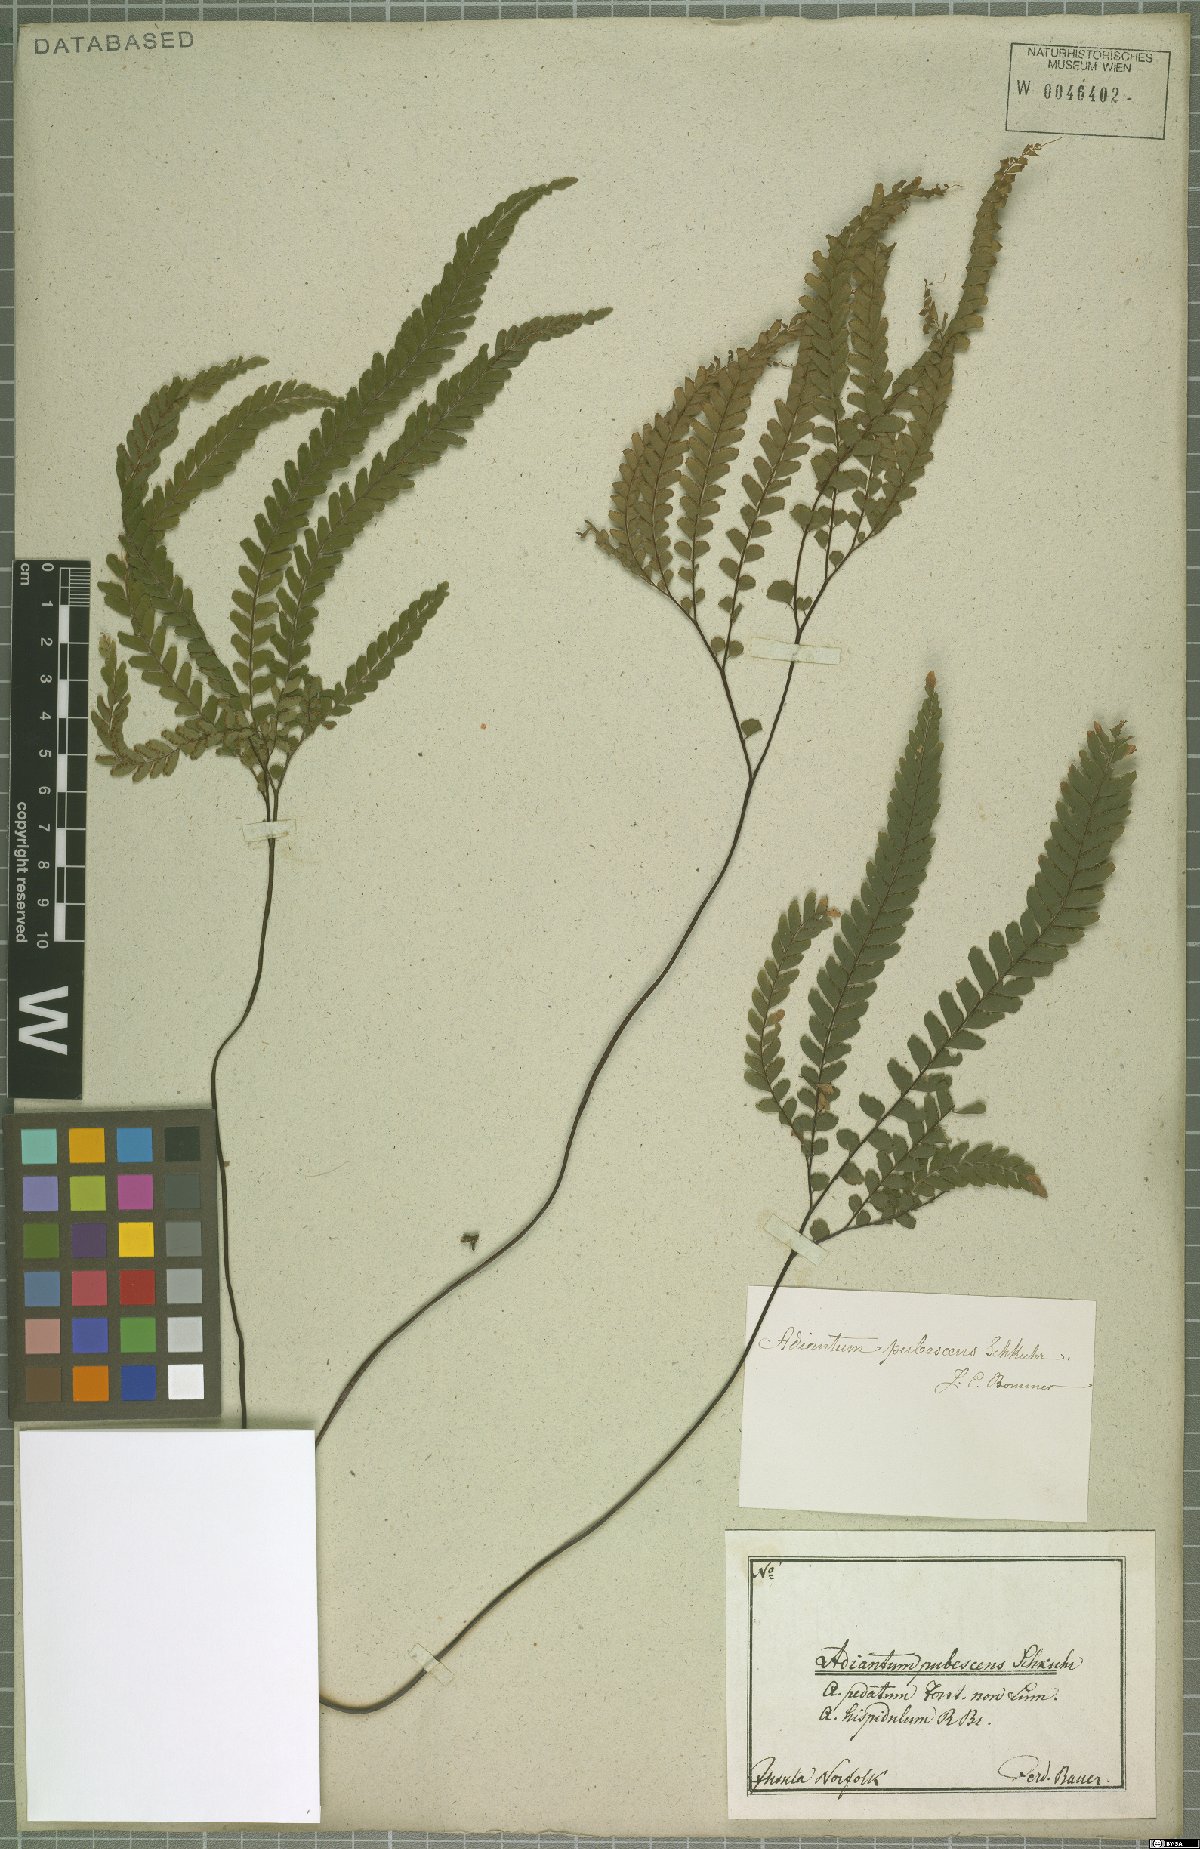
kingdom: Plantae
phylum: Tracheophyta
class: Polypodiopsida
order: Polypodiales
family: Pteridaceae
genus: Adiantum
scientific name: Adiantum hispidulum
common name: Rough maidenhair
